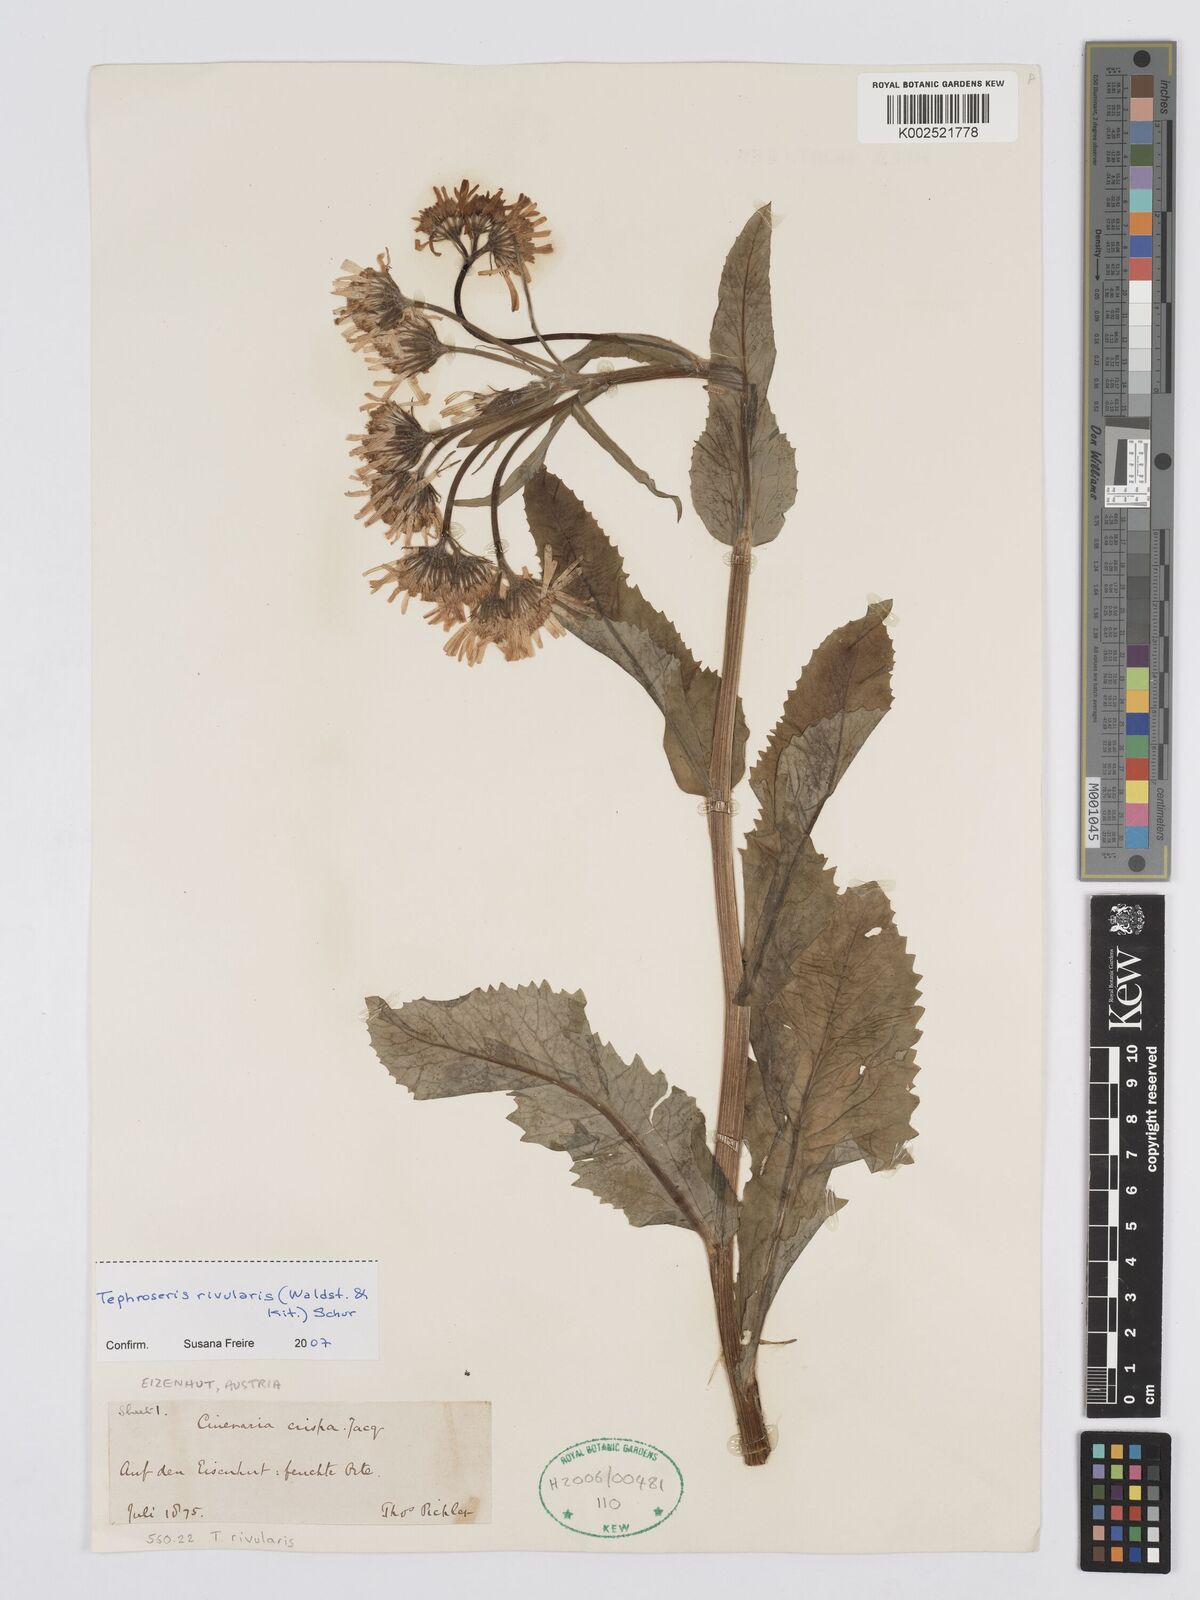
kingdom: Plantae
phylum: Tracheophyta
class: Magnoliopsida
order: Asterales
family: Asteraceae
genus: Tephroseris
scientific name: Tephroseris crispa
